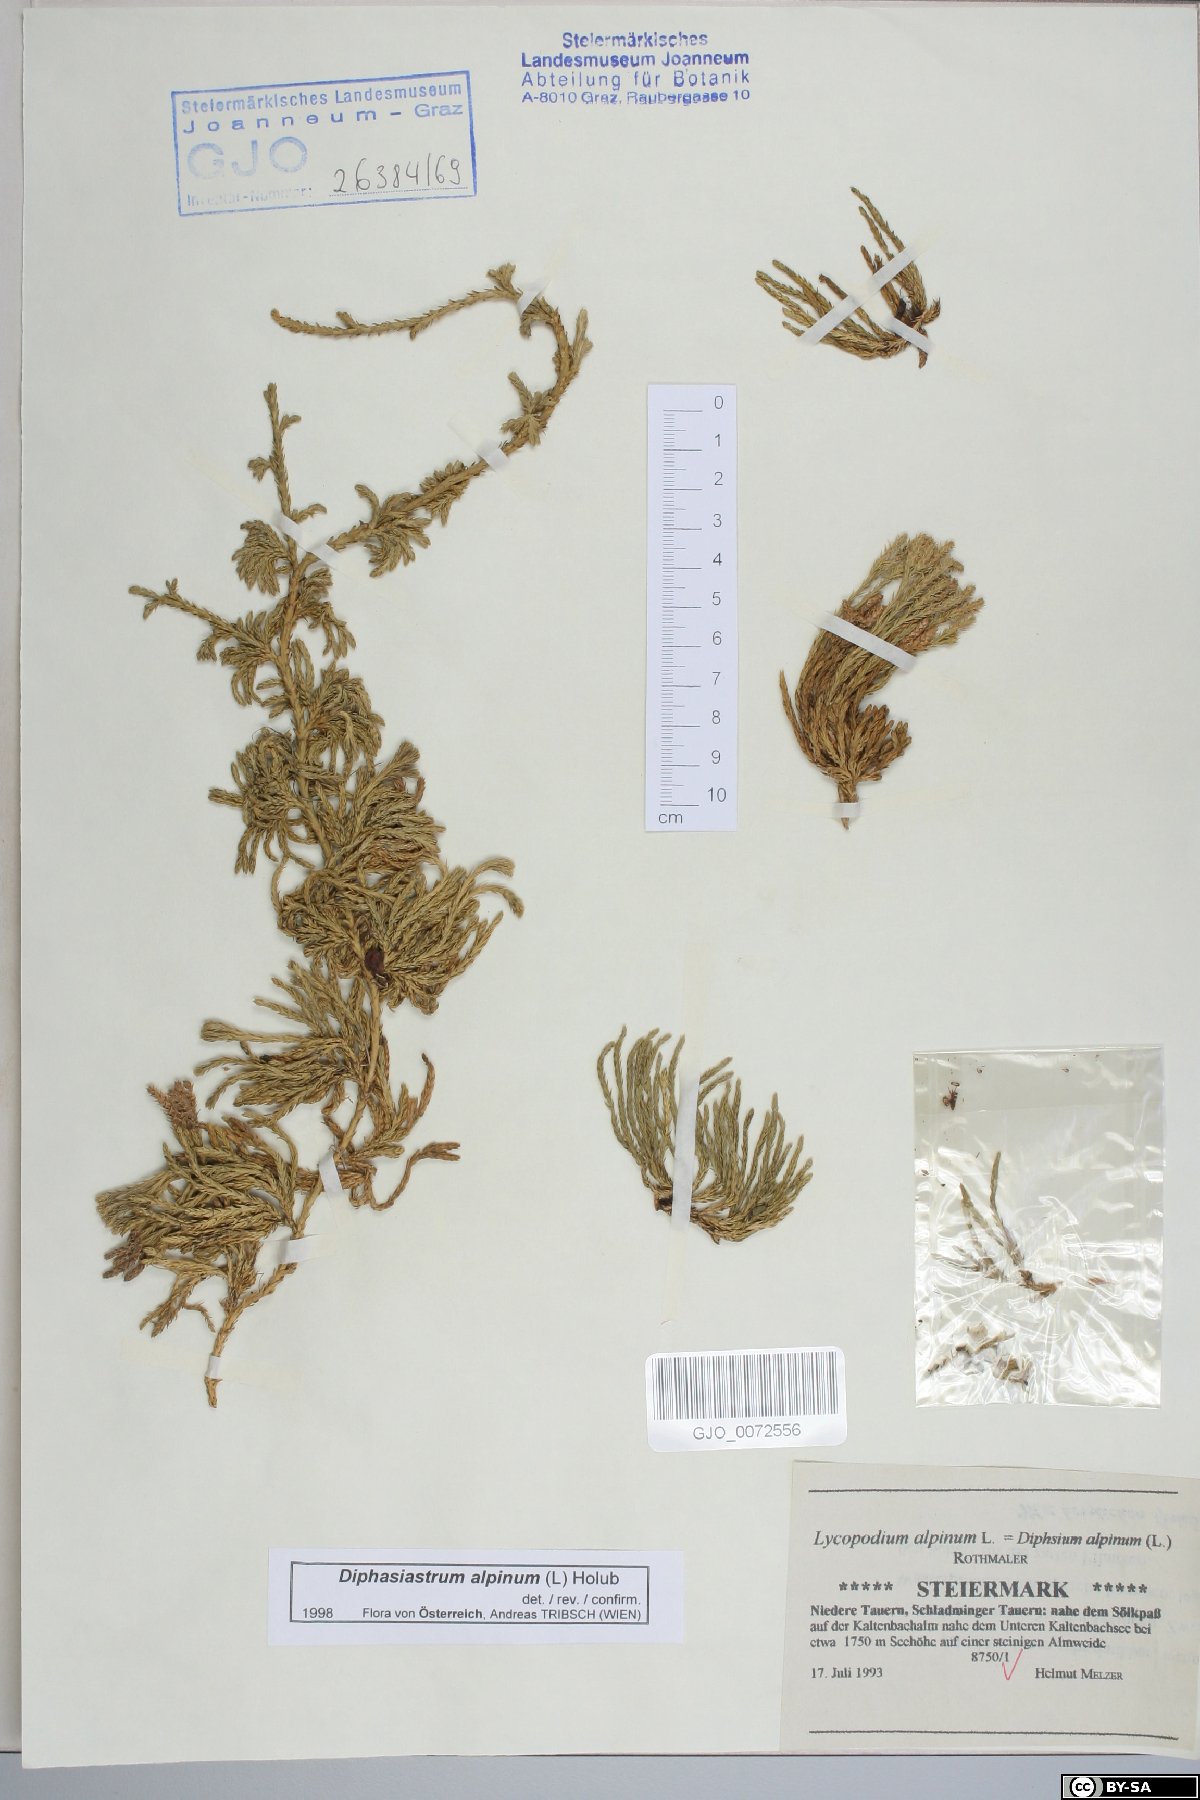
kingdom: Plantae
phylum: Tracheophyta
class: Lycopodiopsida
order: Lycopodiales
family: Lycopodiaceae
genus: Diphasiastrum
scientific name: Diphasiastrum alpinum
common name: Alpine clubmoss
